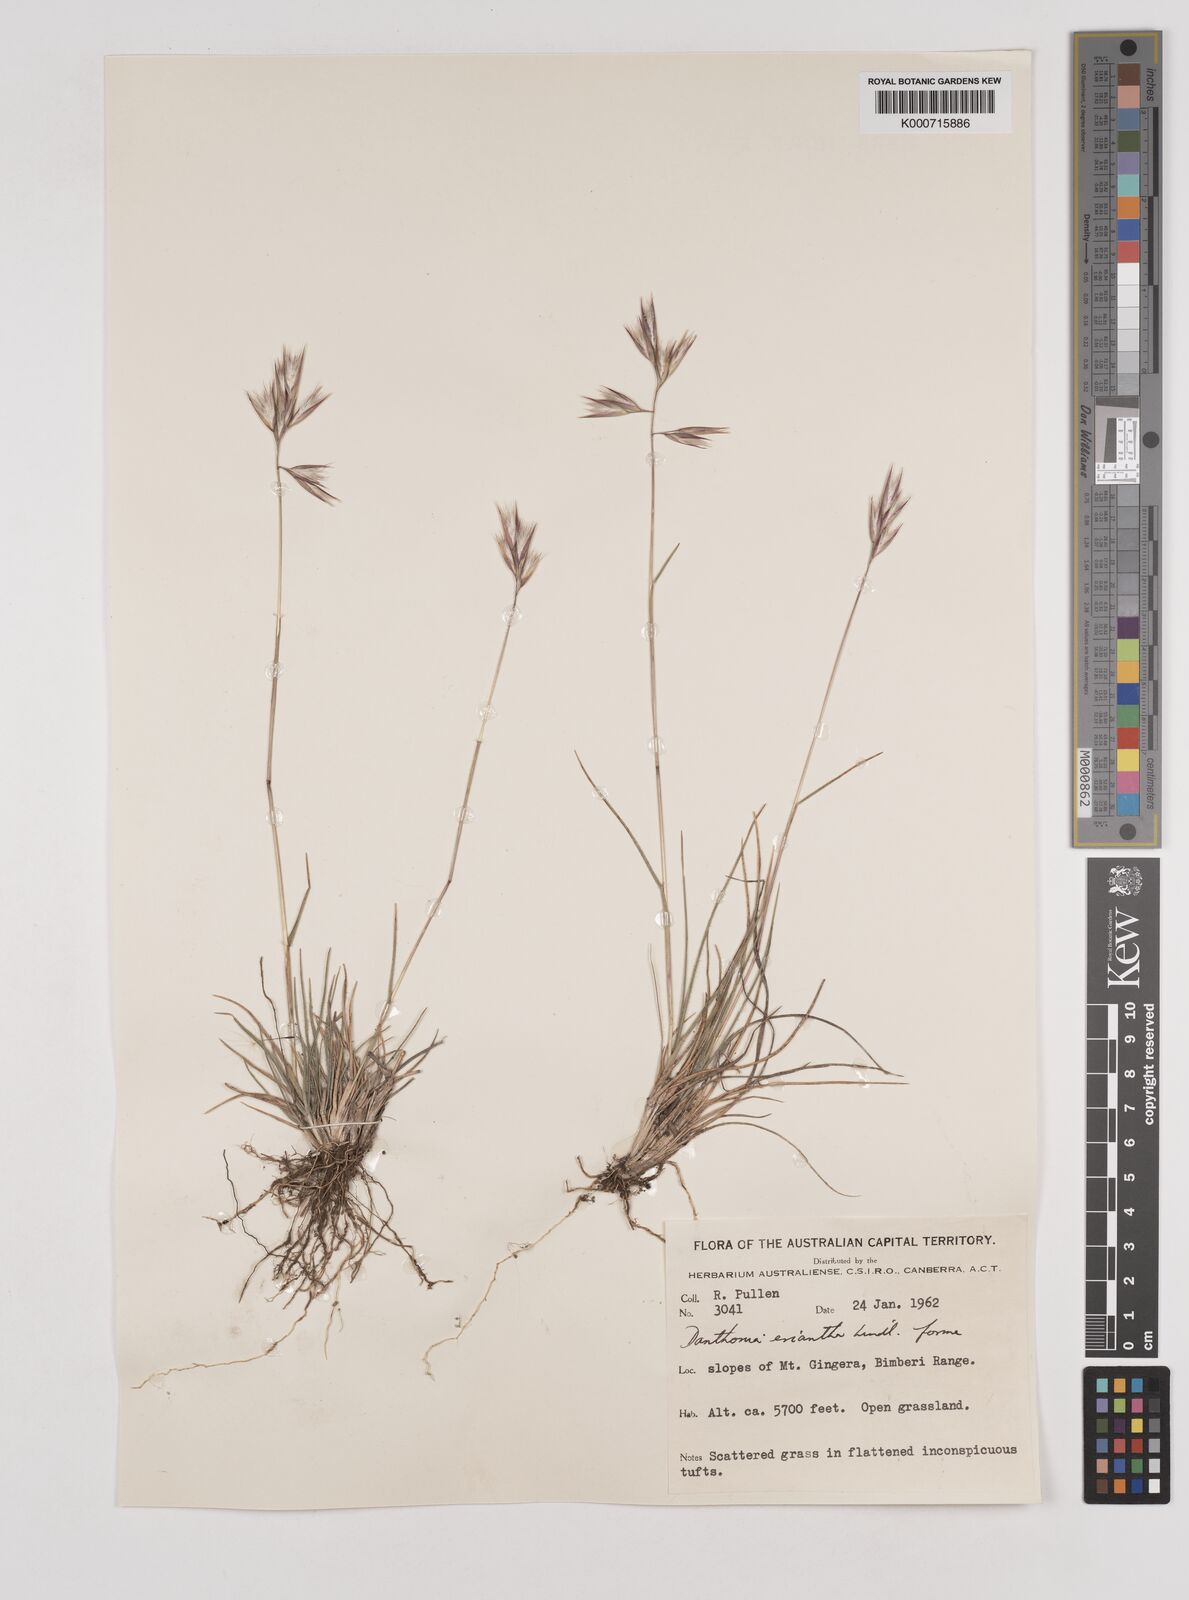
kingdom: Plantae
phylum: Tracheophyta
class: Liliopsida
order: Poales
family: Poaceae
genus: Rytidosperma
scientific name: Rytidosperma erianthum
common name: Hill wallaby grass
